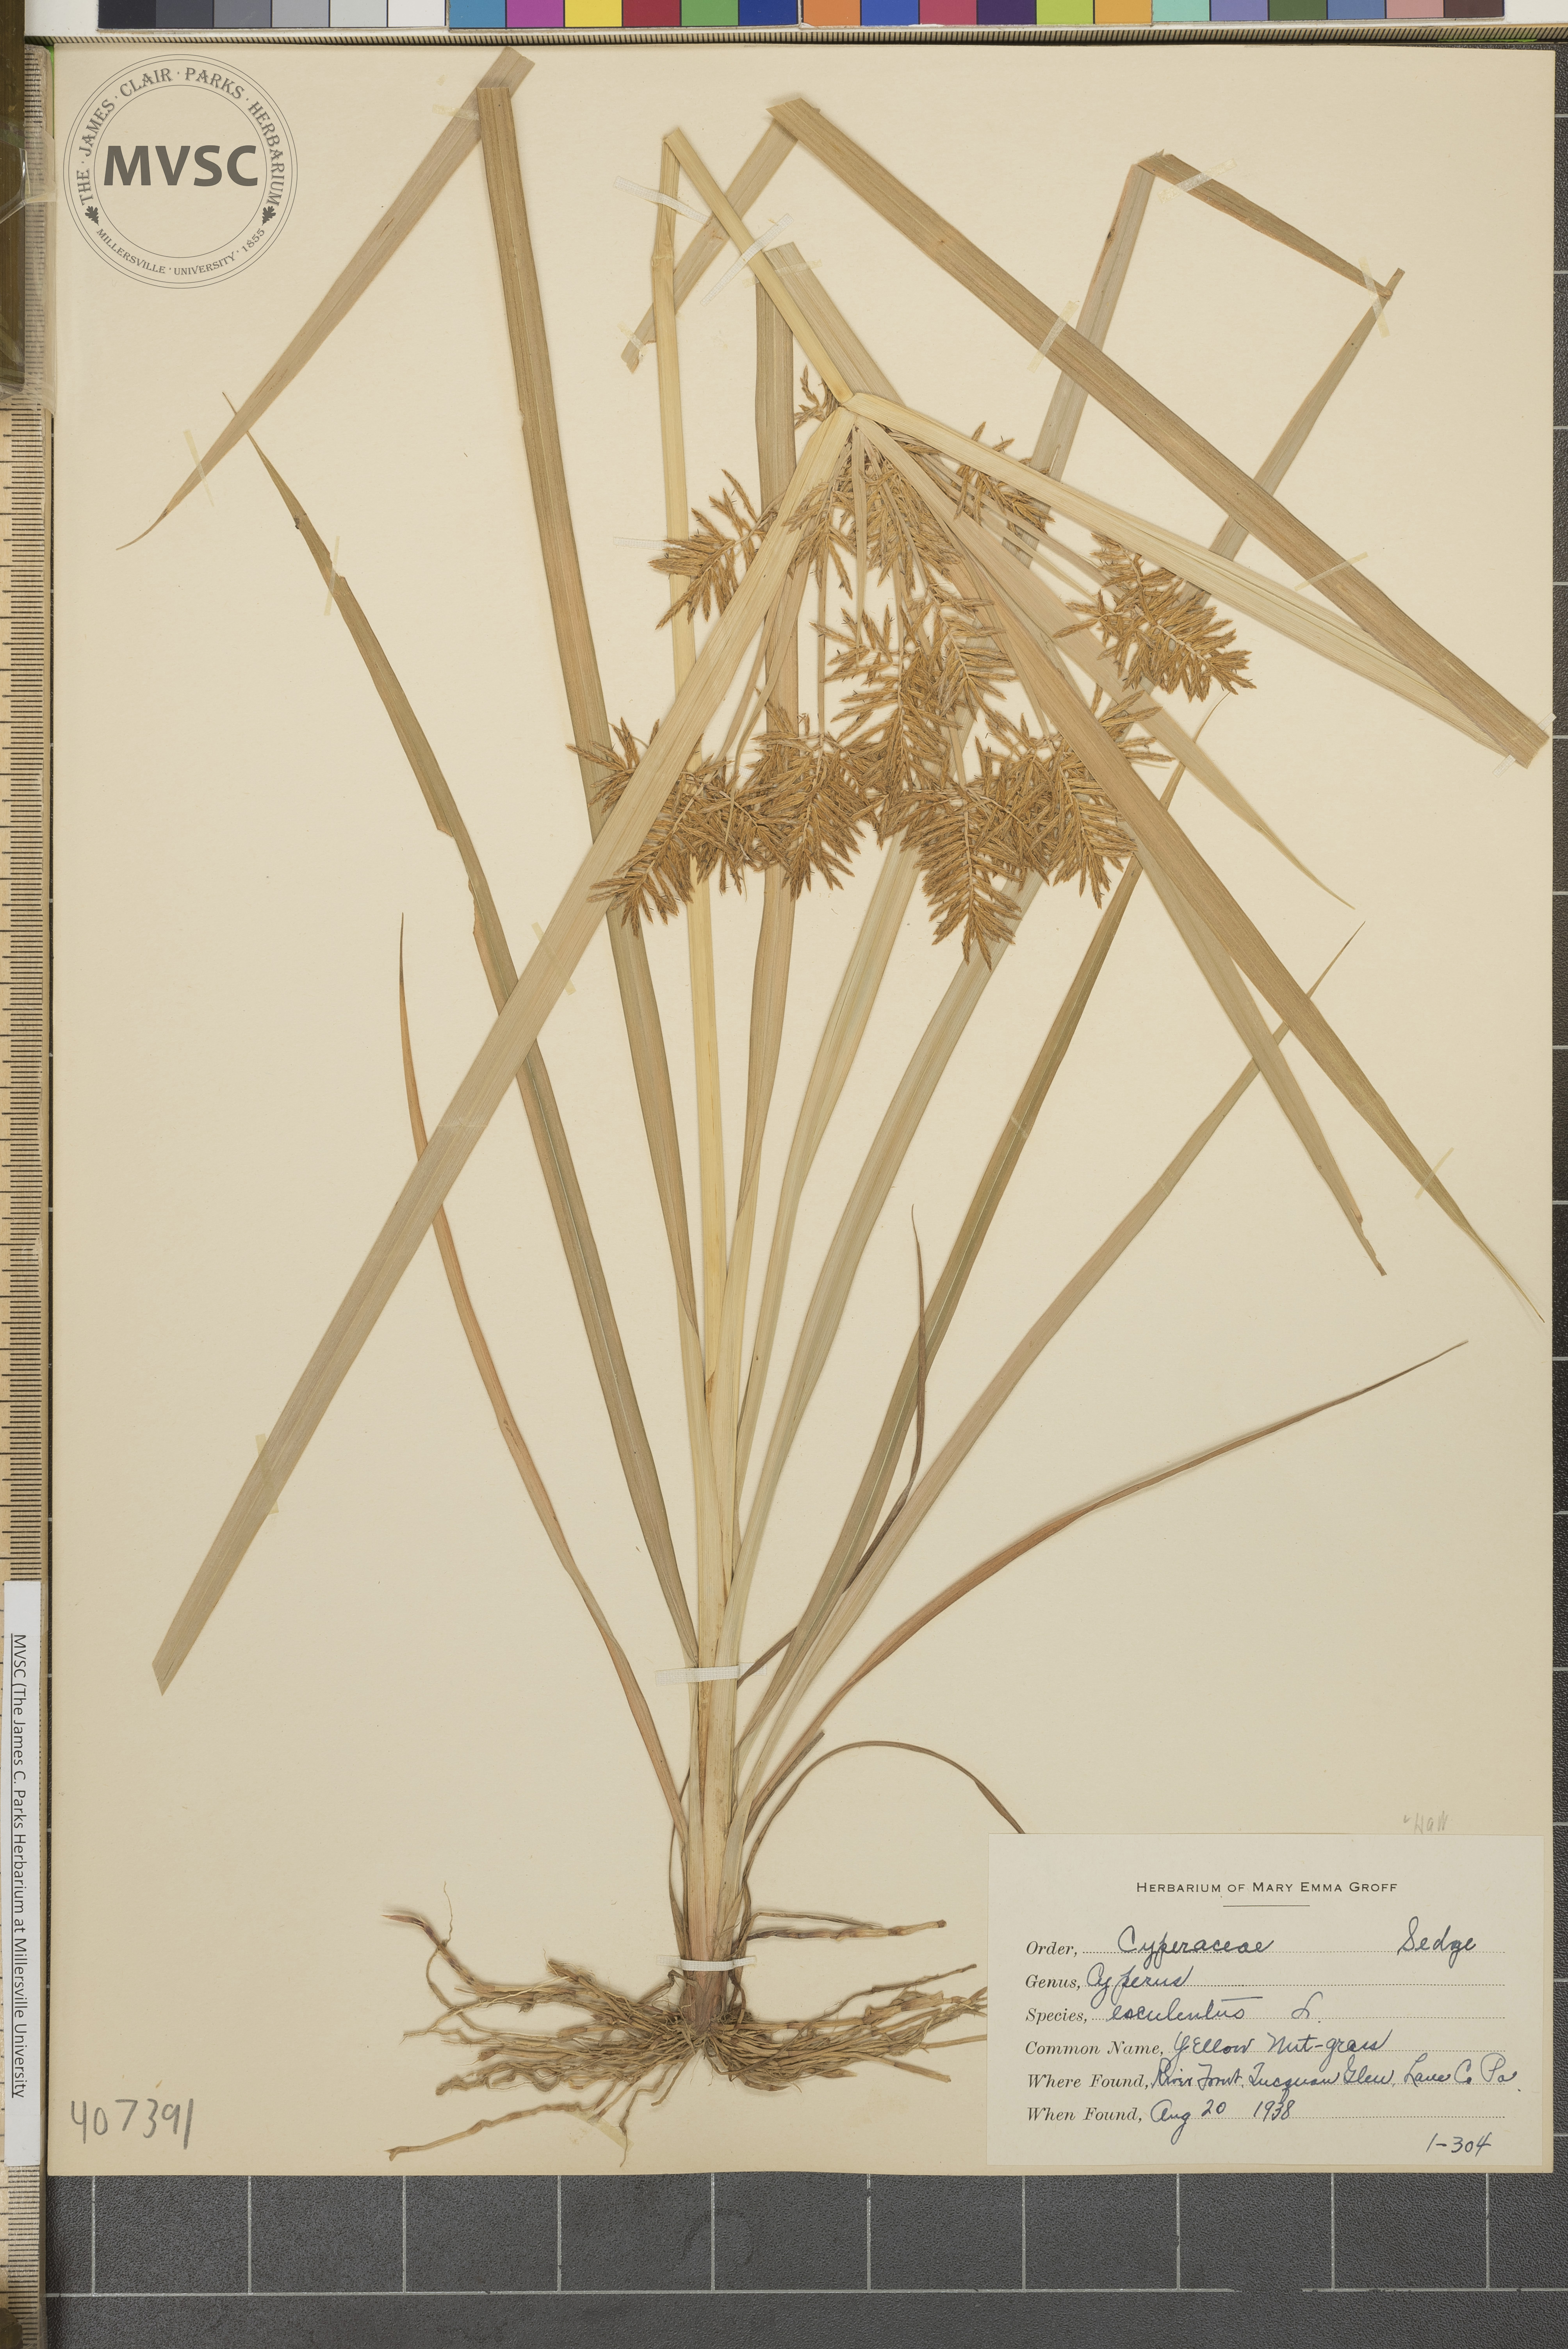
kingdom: Plantae
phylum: Tracheophyta
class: Liliopsida
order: Poales
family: Cyperaceae
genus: Cyperus
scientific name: Cyperus esculentus
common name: Yellow Nut-grass
